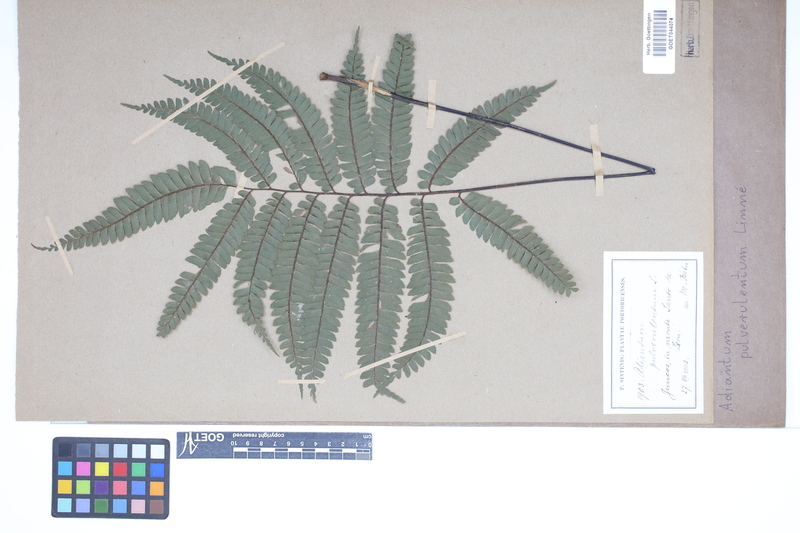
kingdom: Plantae
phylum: Tracheophyta
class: Polypodiopsida
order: Polypodiales
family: Pteridaceae
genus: Adiantum
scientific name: Adiantum pulverulentum
